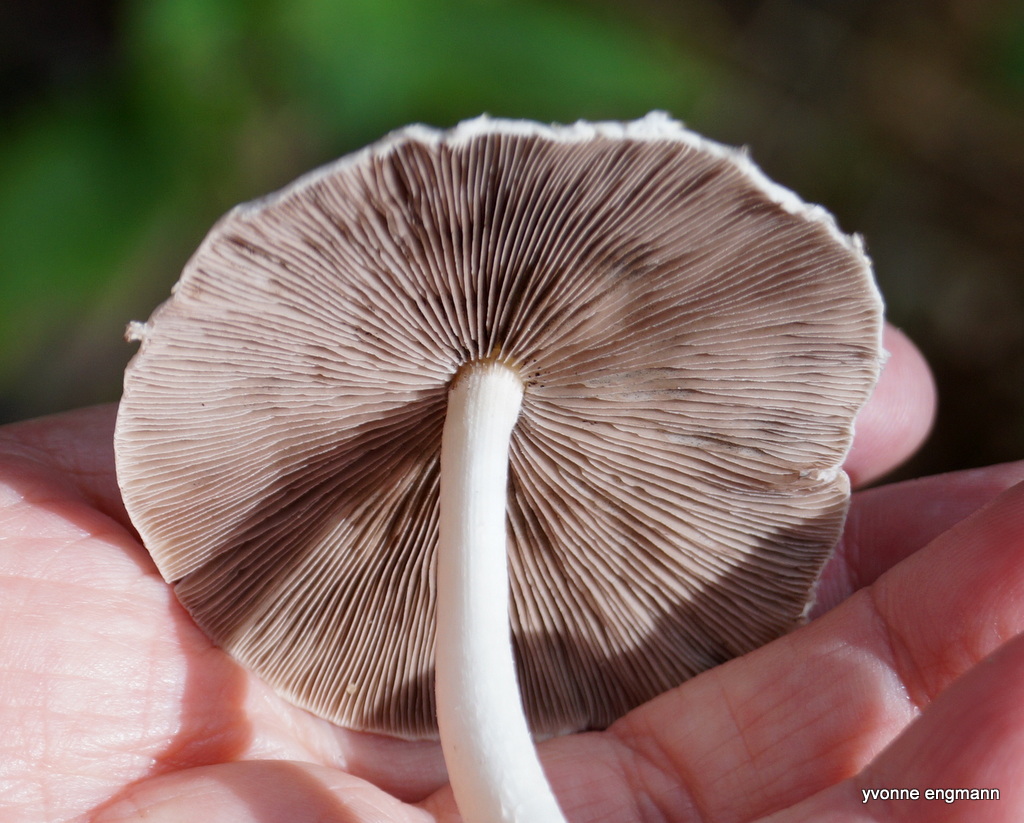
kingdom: Fungi
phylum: Basidiomycota
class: Agaricomycetes
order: Agaricales
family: Psathyrellaceae
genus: Candolleomyces
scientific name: Candolleomyces candolleanus
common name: Candolles mørkhat
